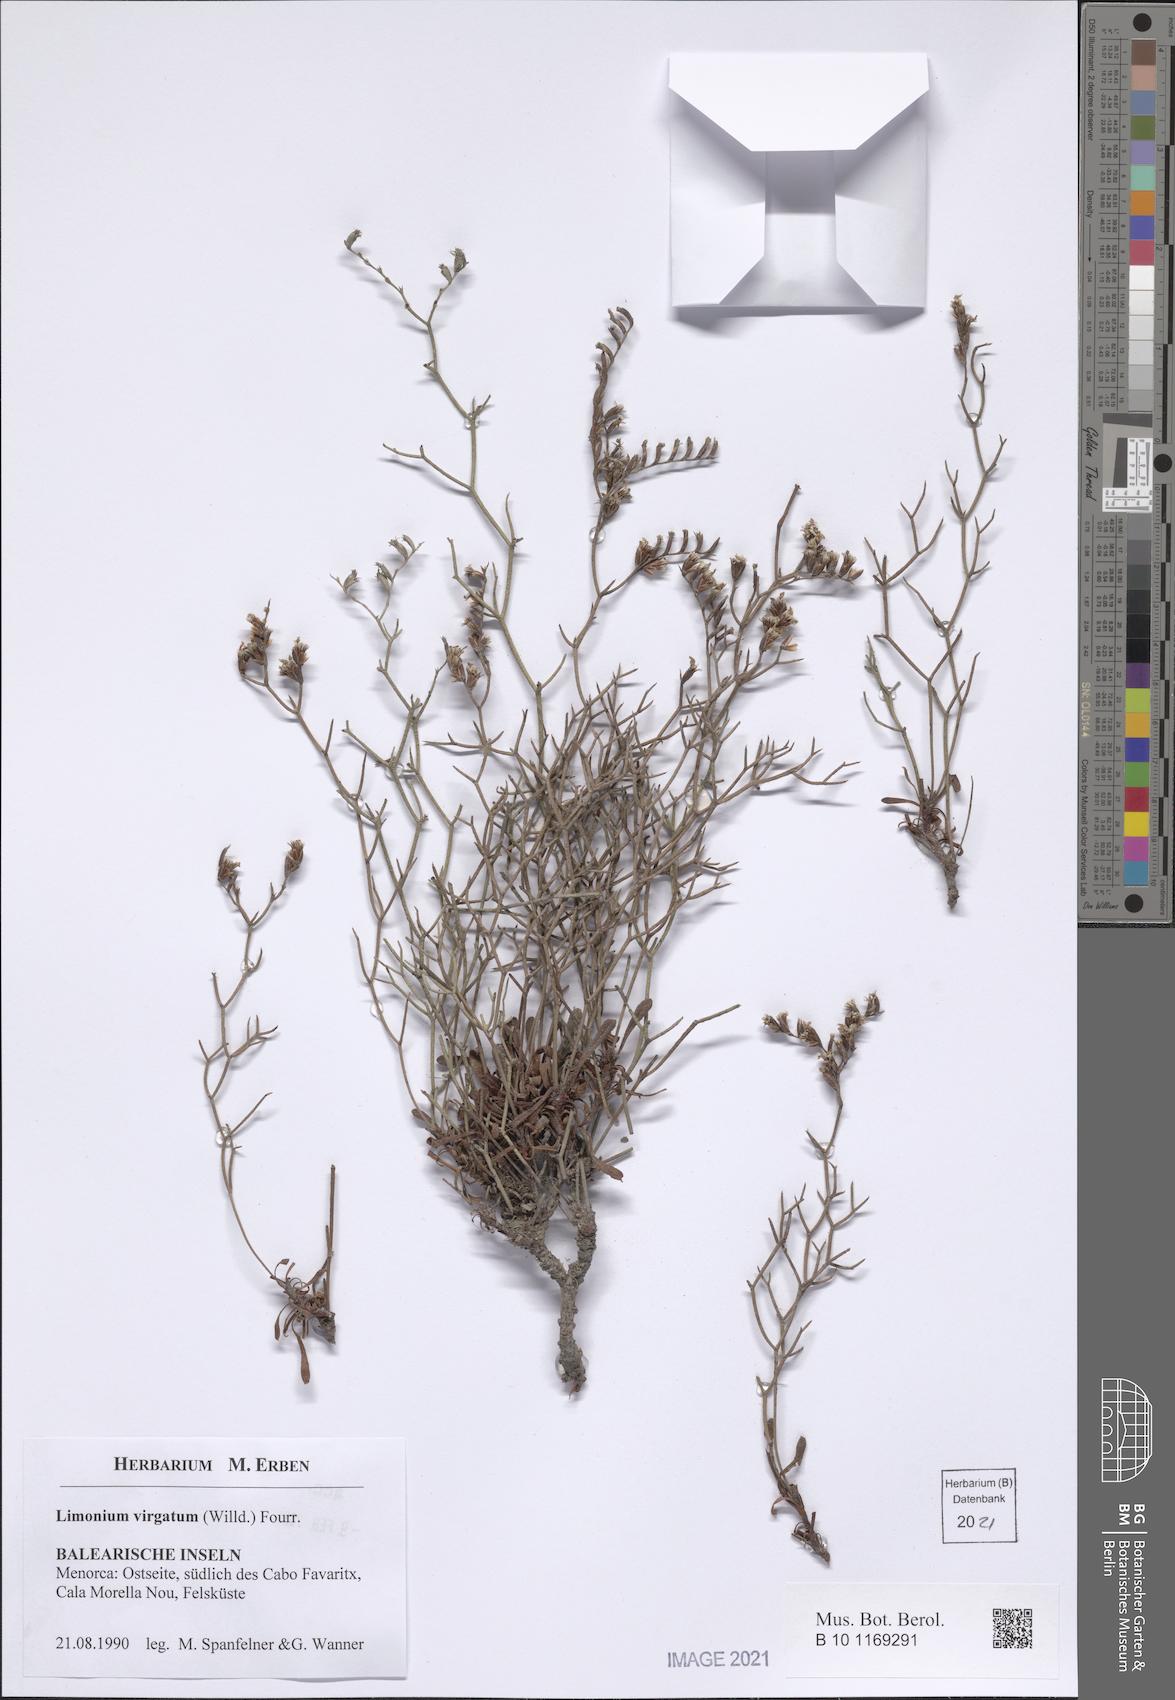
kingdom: Plantae
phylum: Tracheophyta
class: Magnoliopsida
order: Caryophyllales
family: Plumbaginaceae
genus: Limonium
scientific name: Limonium virgatum
